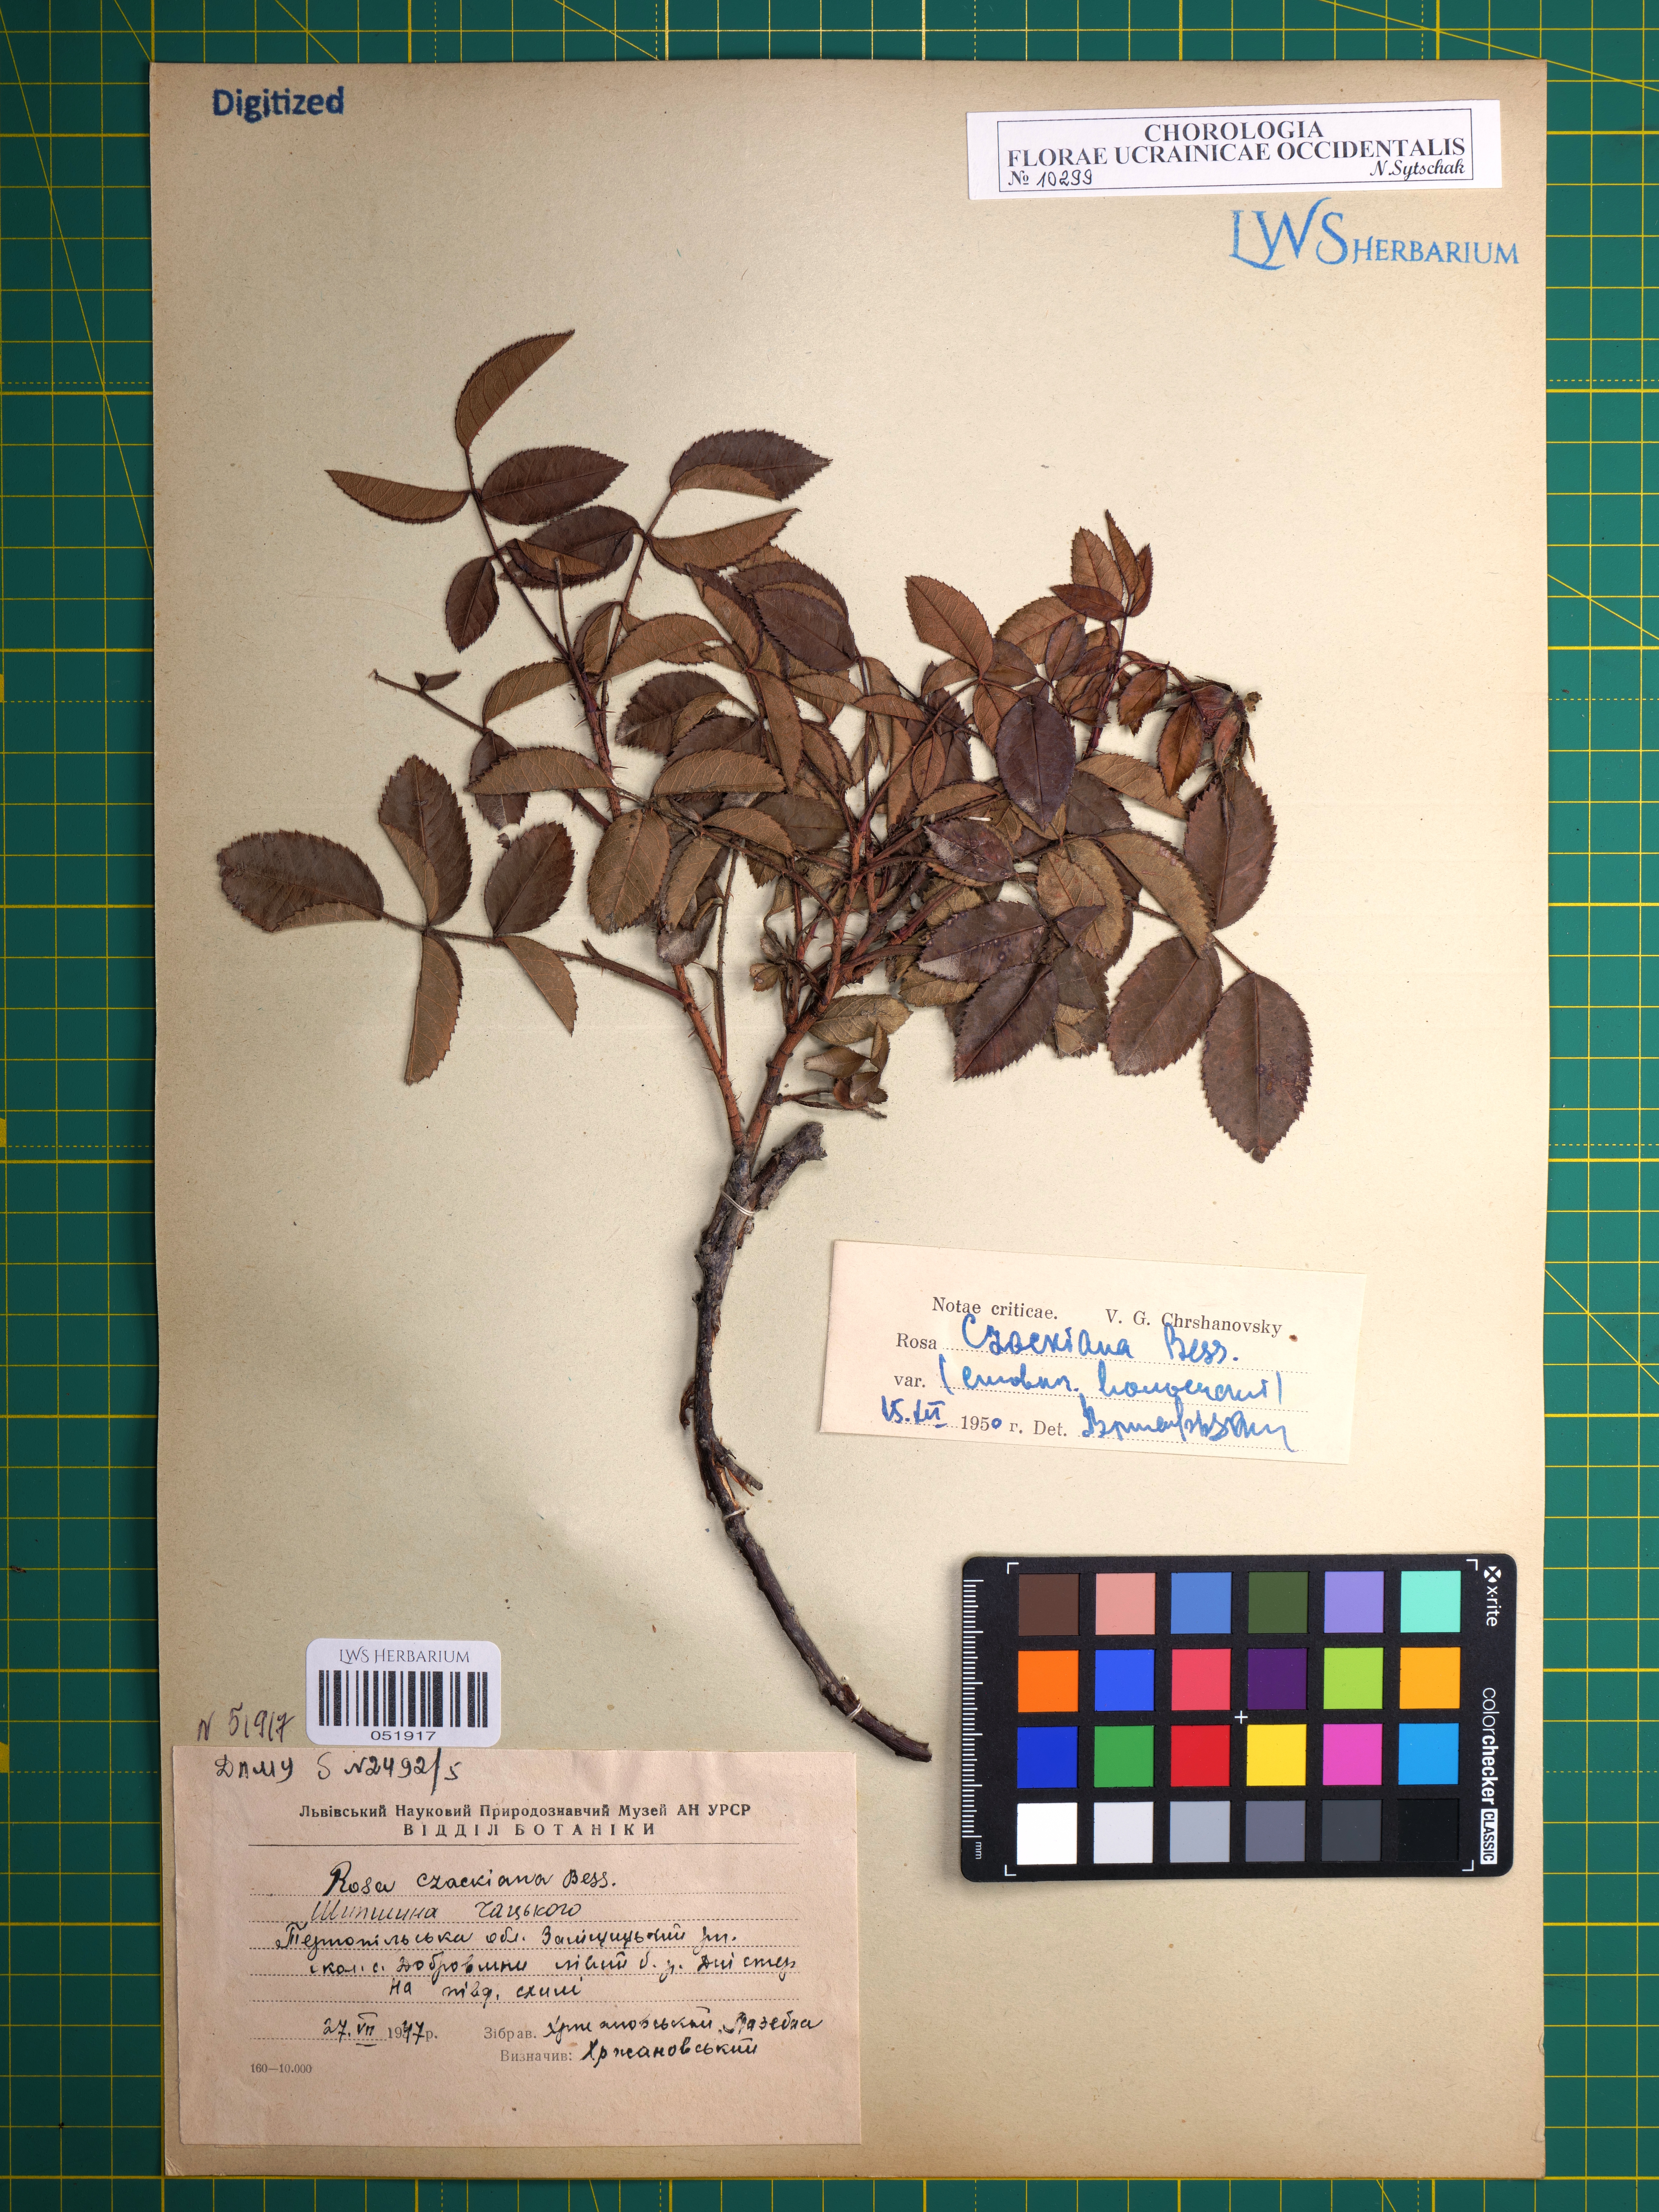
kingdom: Plantae
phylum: Tracheophyta
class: Magnoliopsida
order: Rosales
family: Rosaceae
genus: Rosa
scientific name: Rosa gallica
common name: French rose
